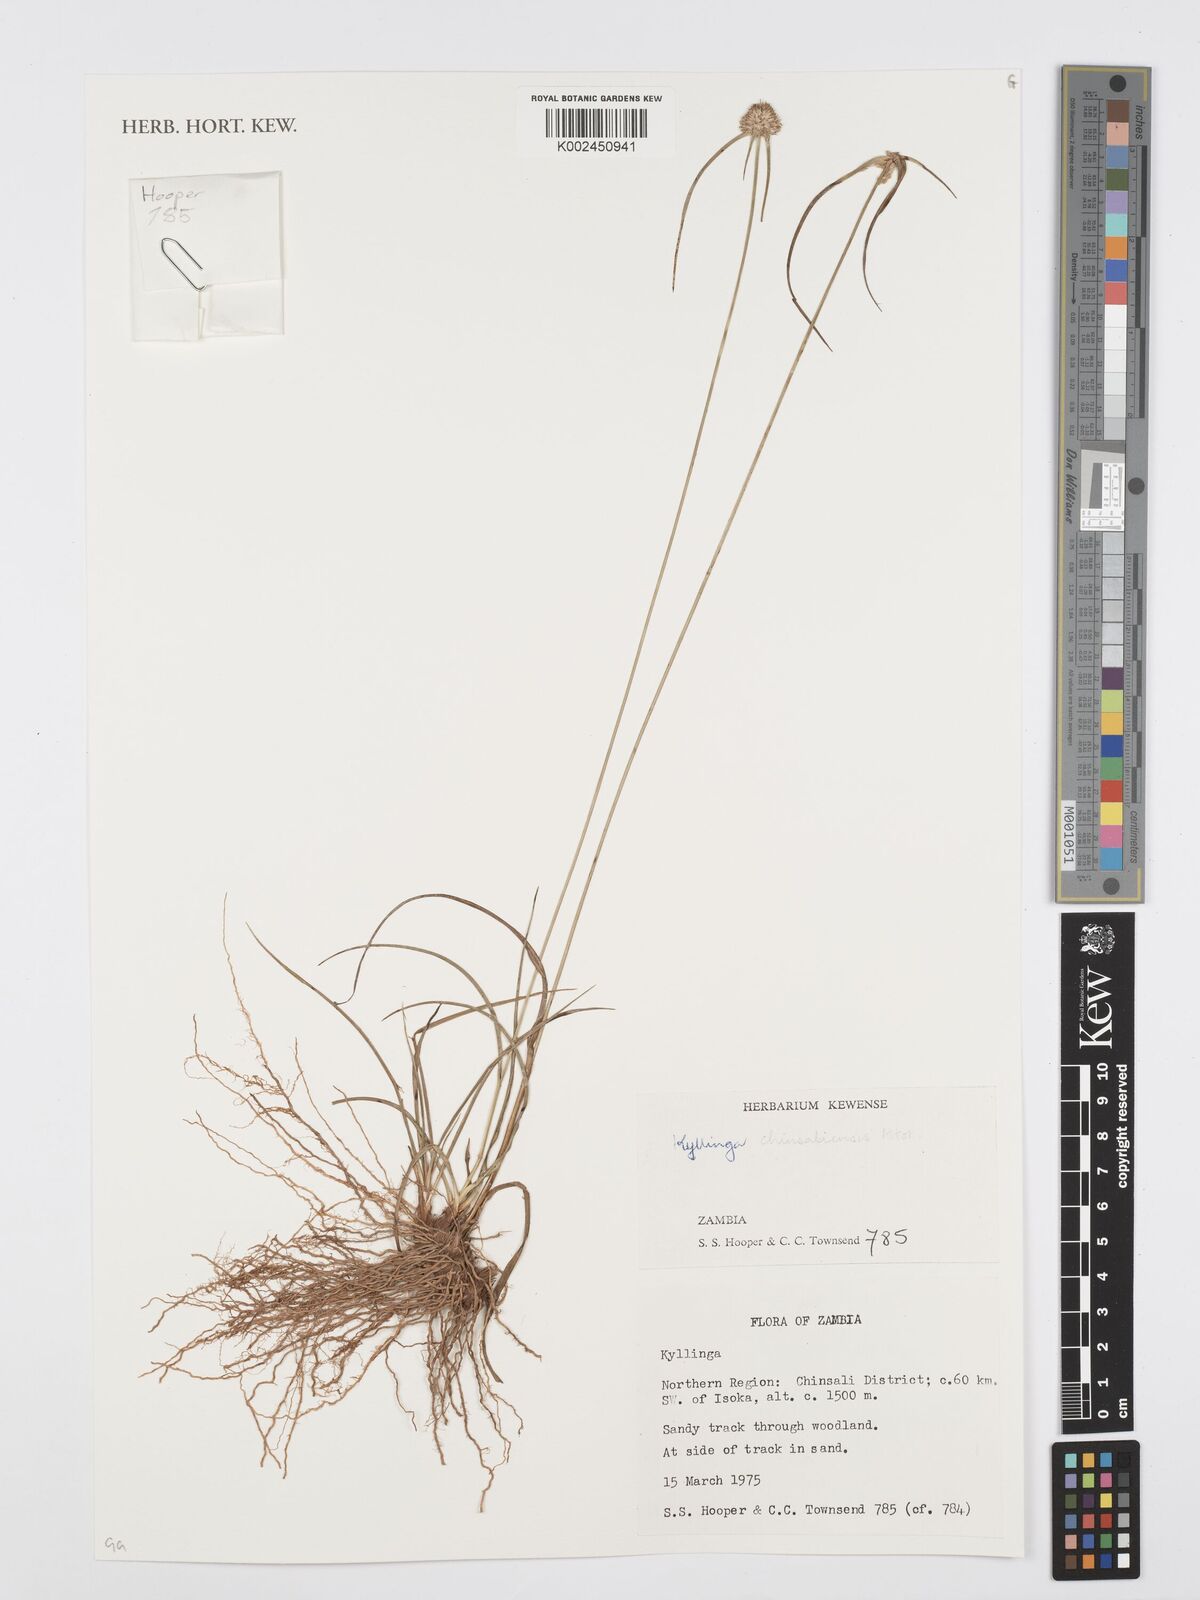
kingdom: Plantae
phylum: Tracheophyta
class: Liliopsida
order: Poales
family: Cyperaceae
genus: Cyperus
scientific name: Cyperus chinsalensis
